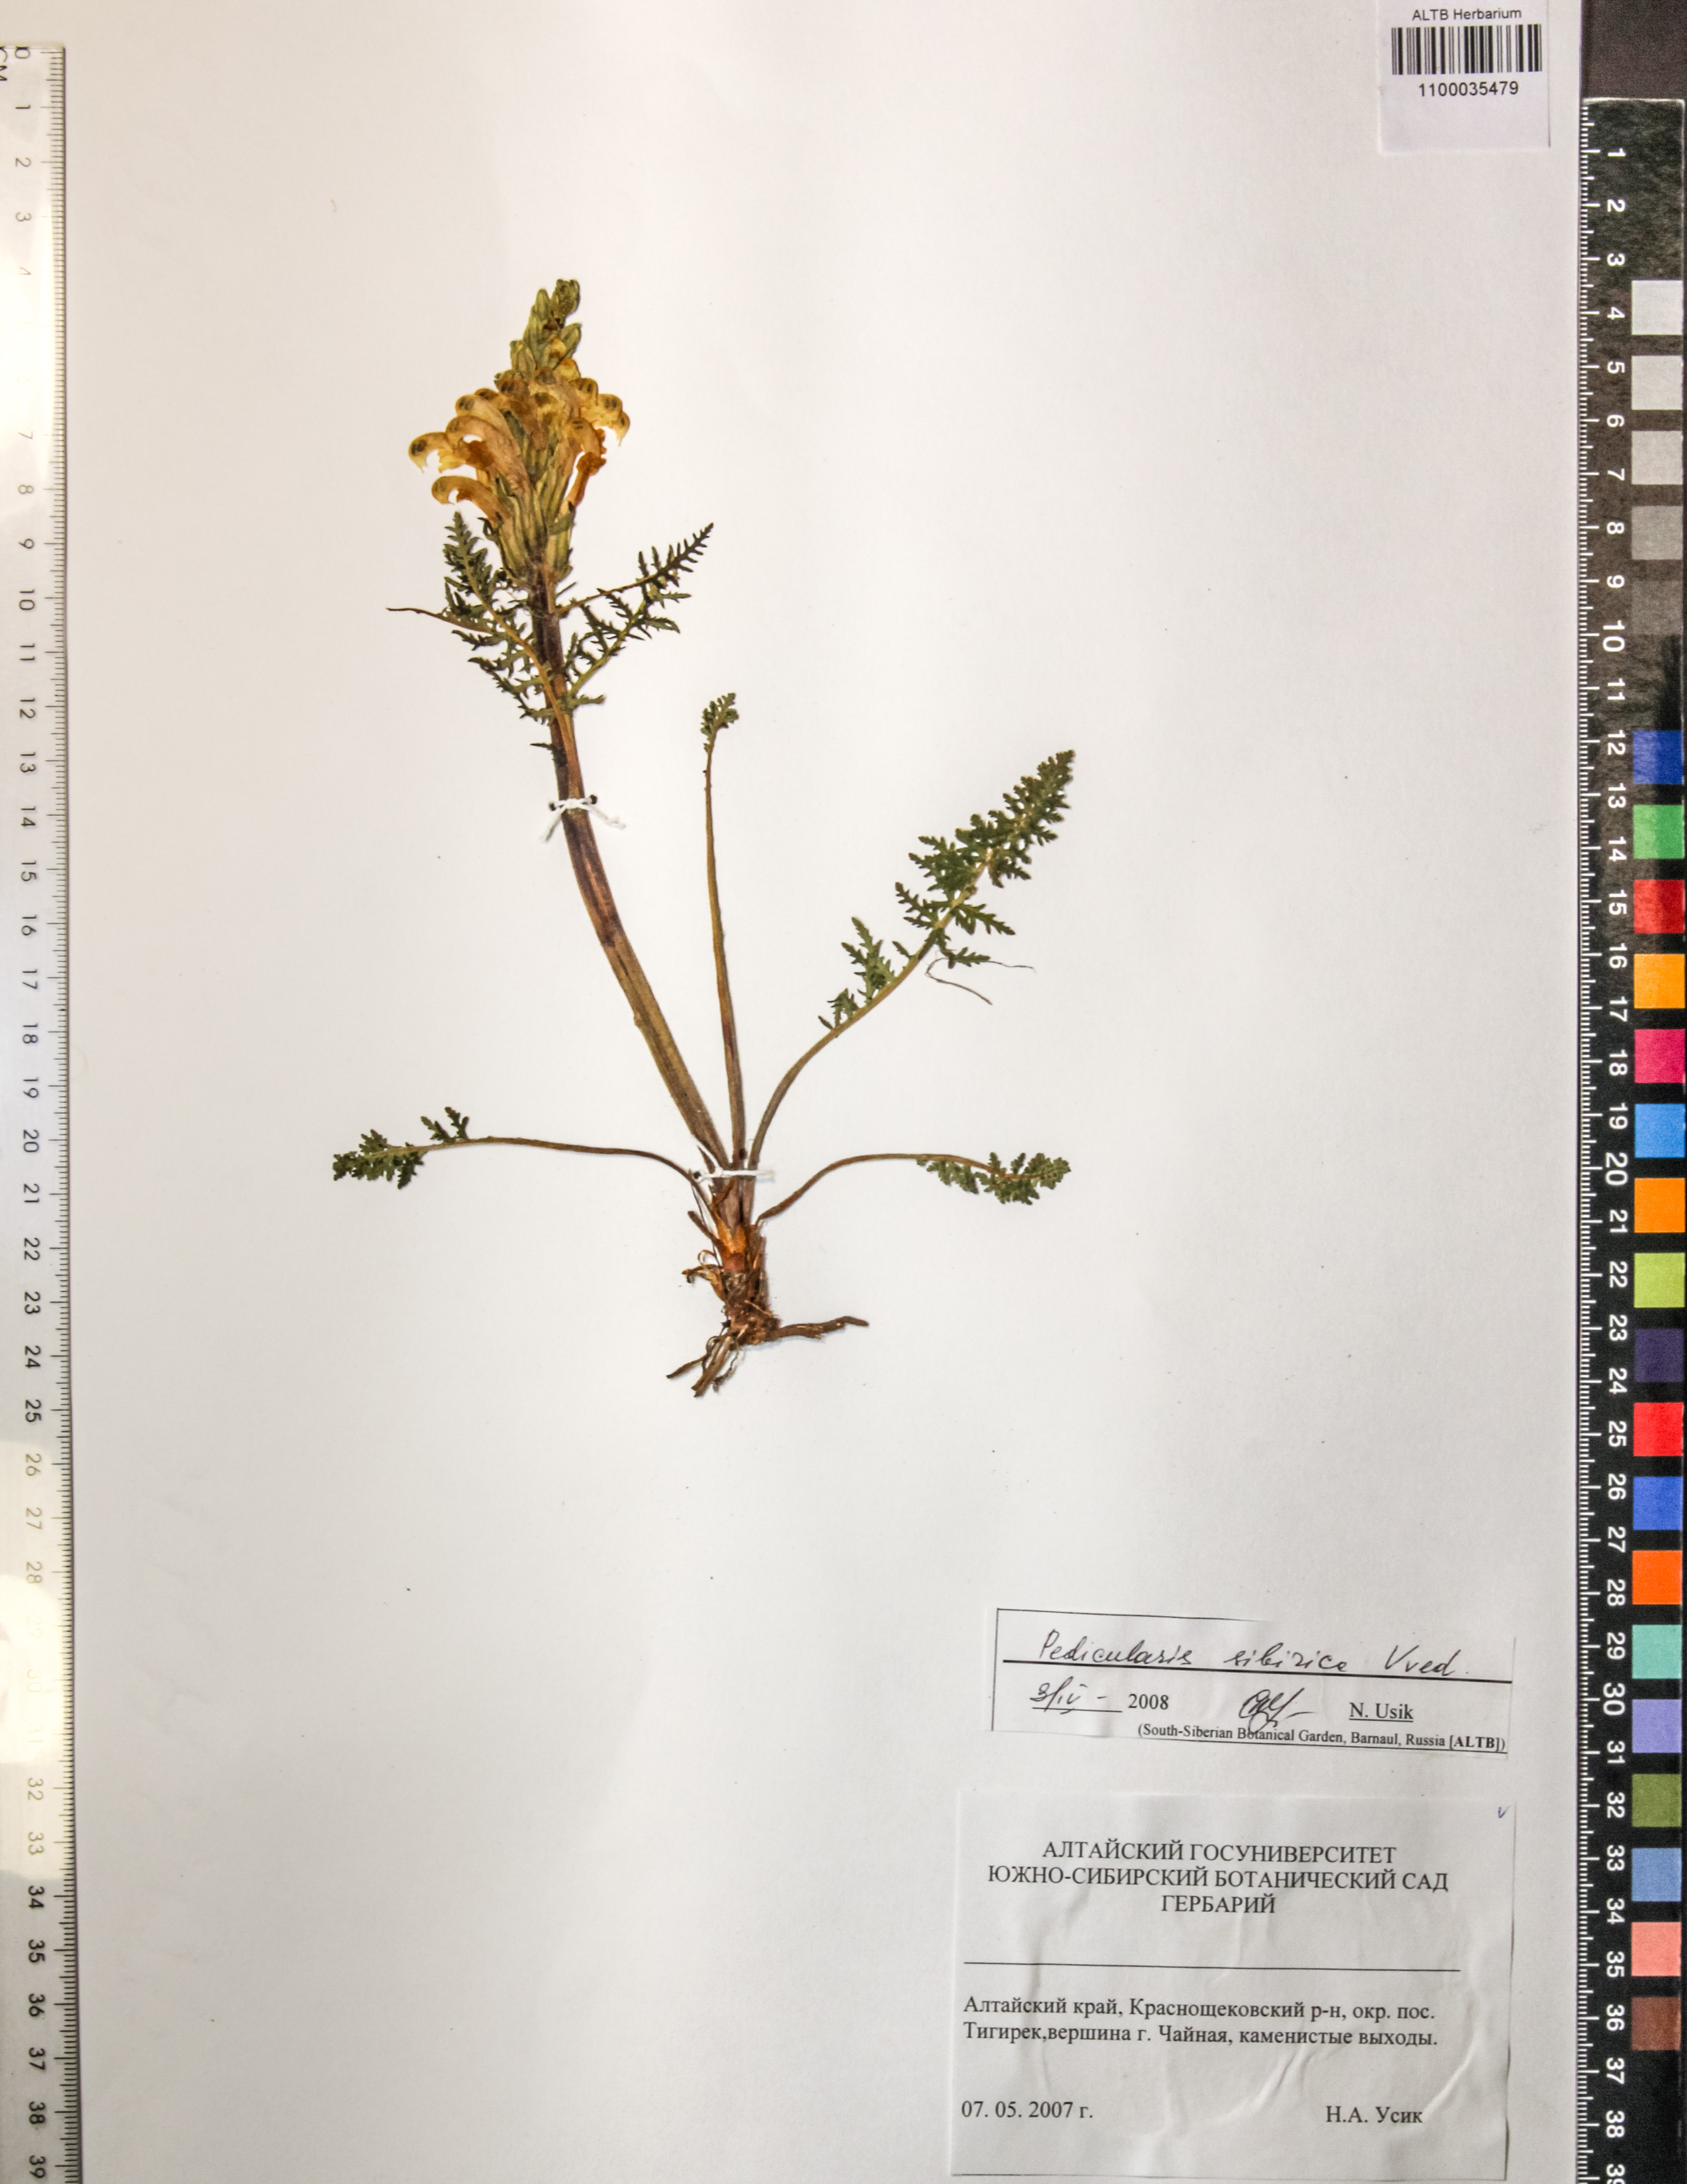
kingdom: Plantae
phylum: Tracheophyta
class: Magnoliopsida
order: Lamiales
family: Orobanchaceae
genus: Pedicularis
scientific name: Pedicularis sibirica
